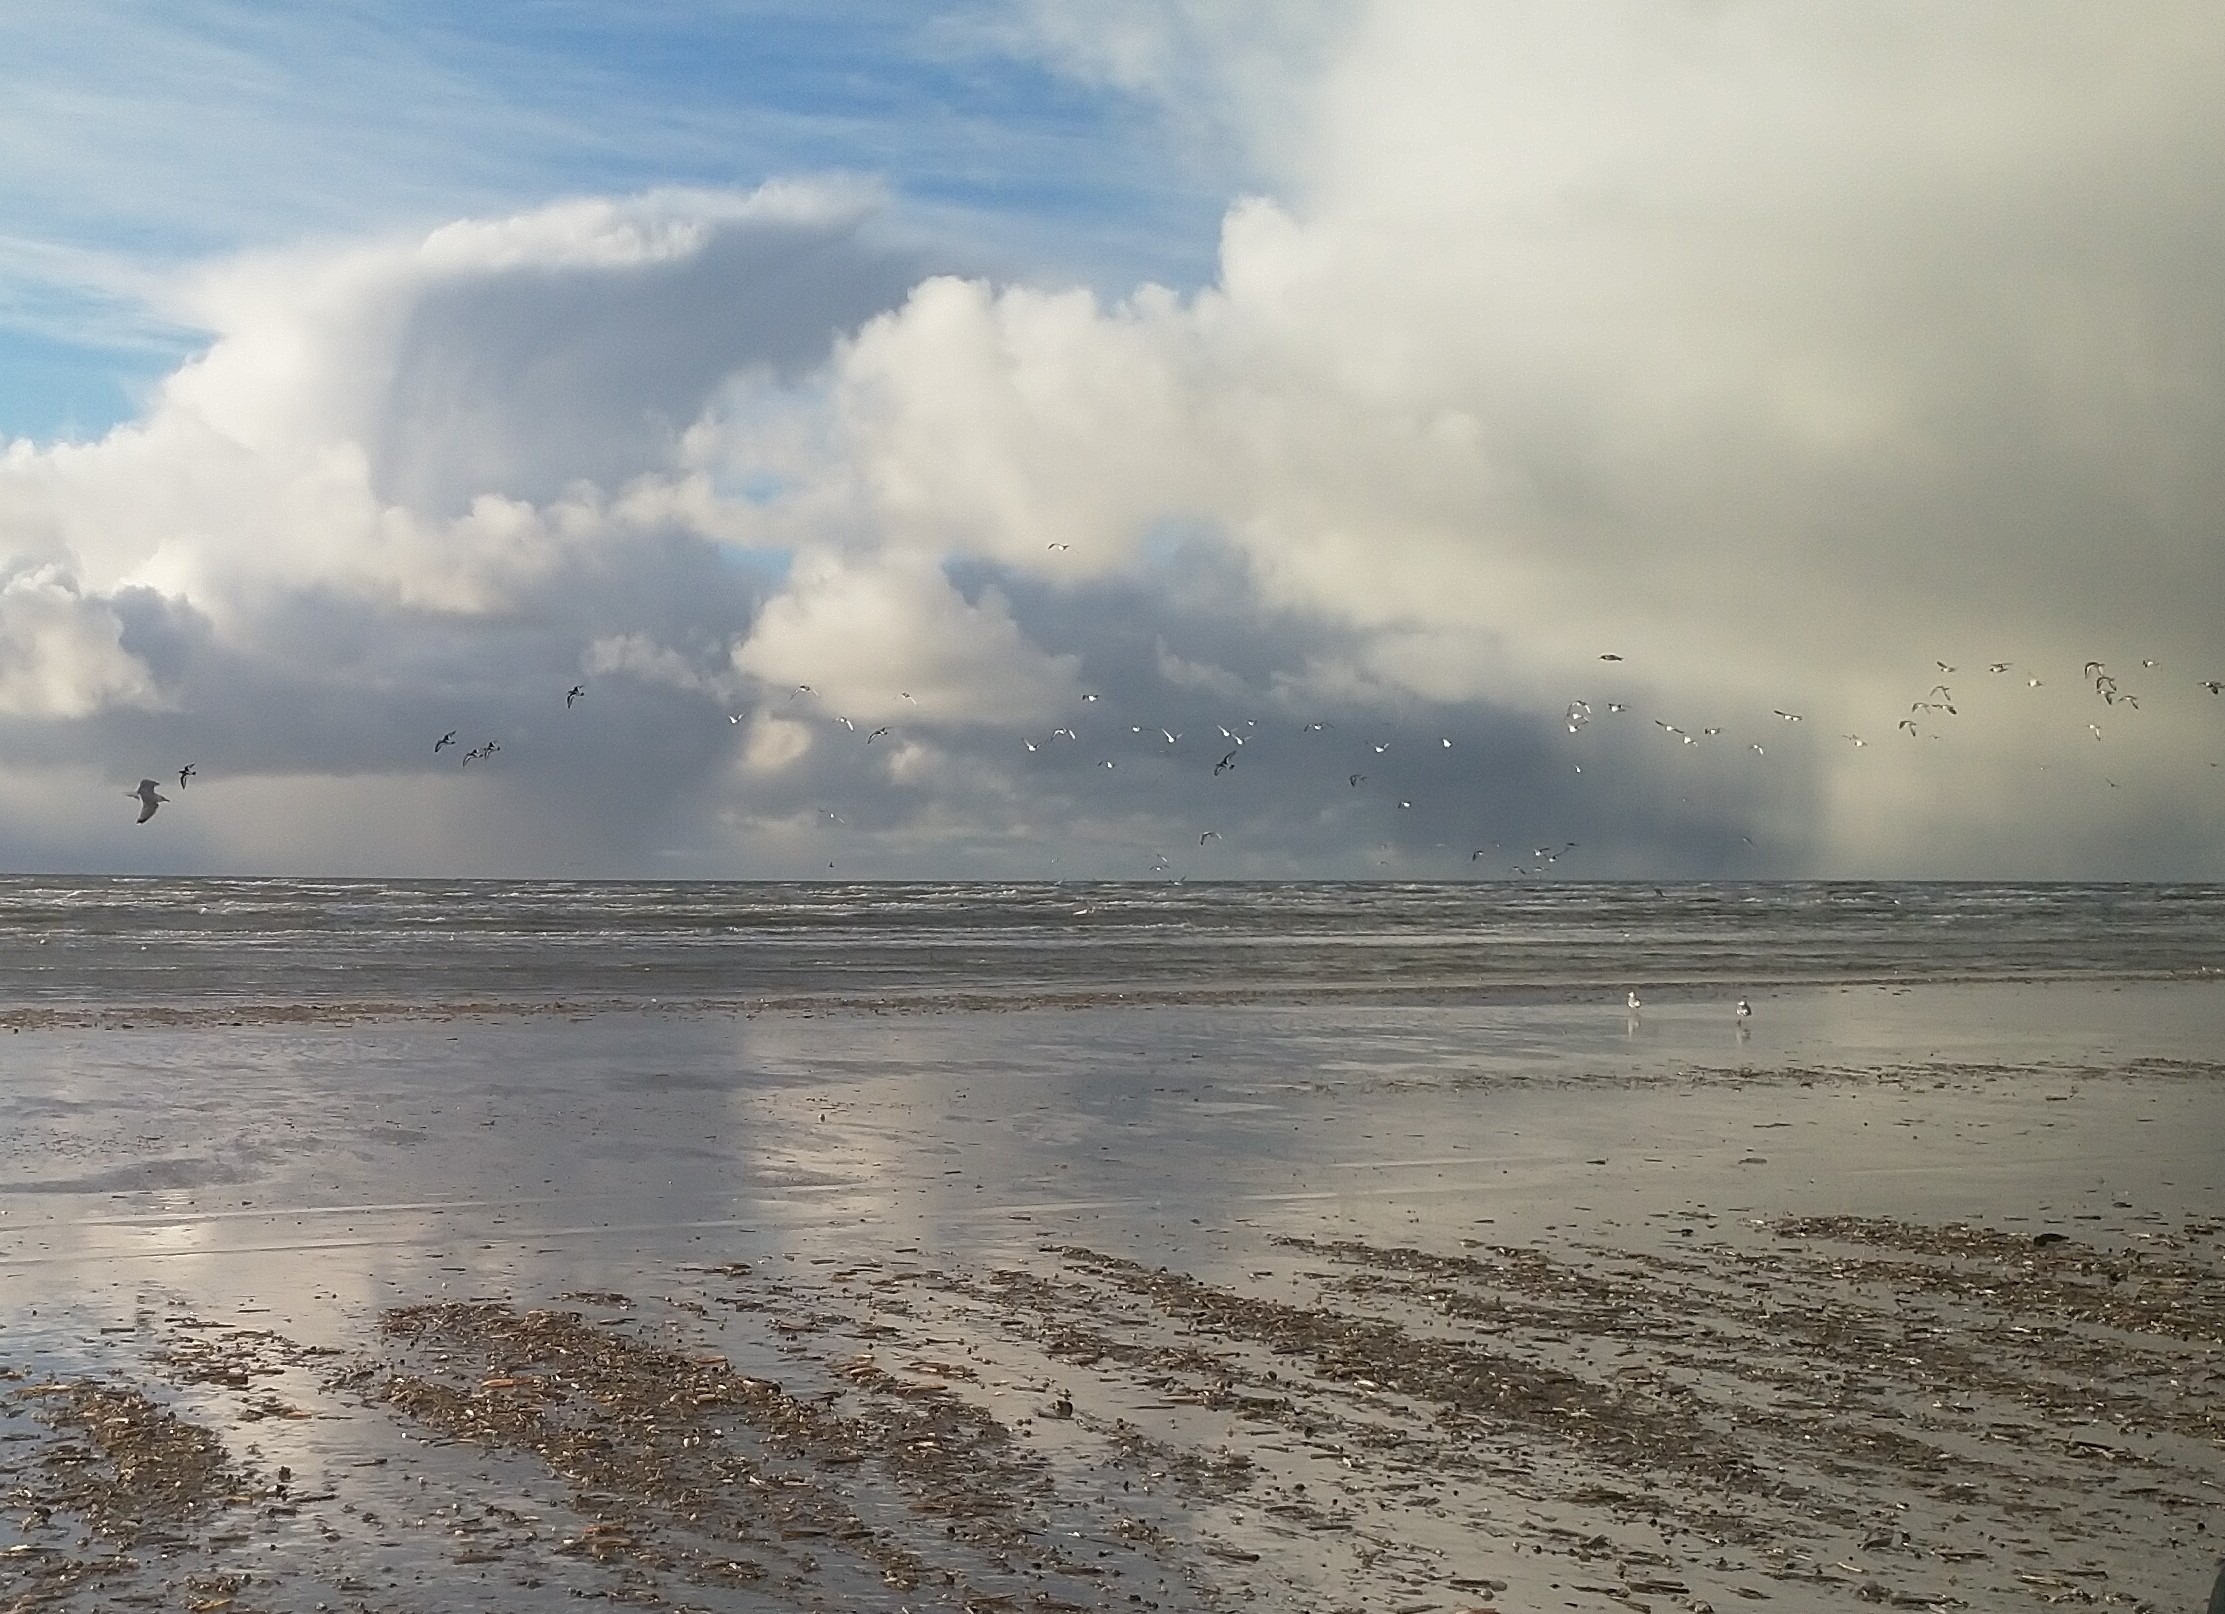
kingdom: Animalia
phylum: Chordata
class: Aves
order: Charadriiformes
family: Haematopodidae
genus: Haematopus
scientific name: Haematopus ostralegus
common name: Strandskade
